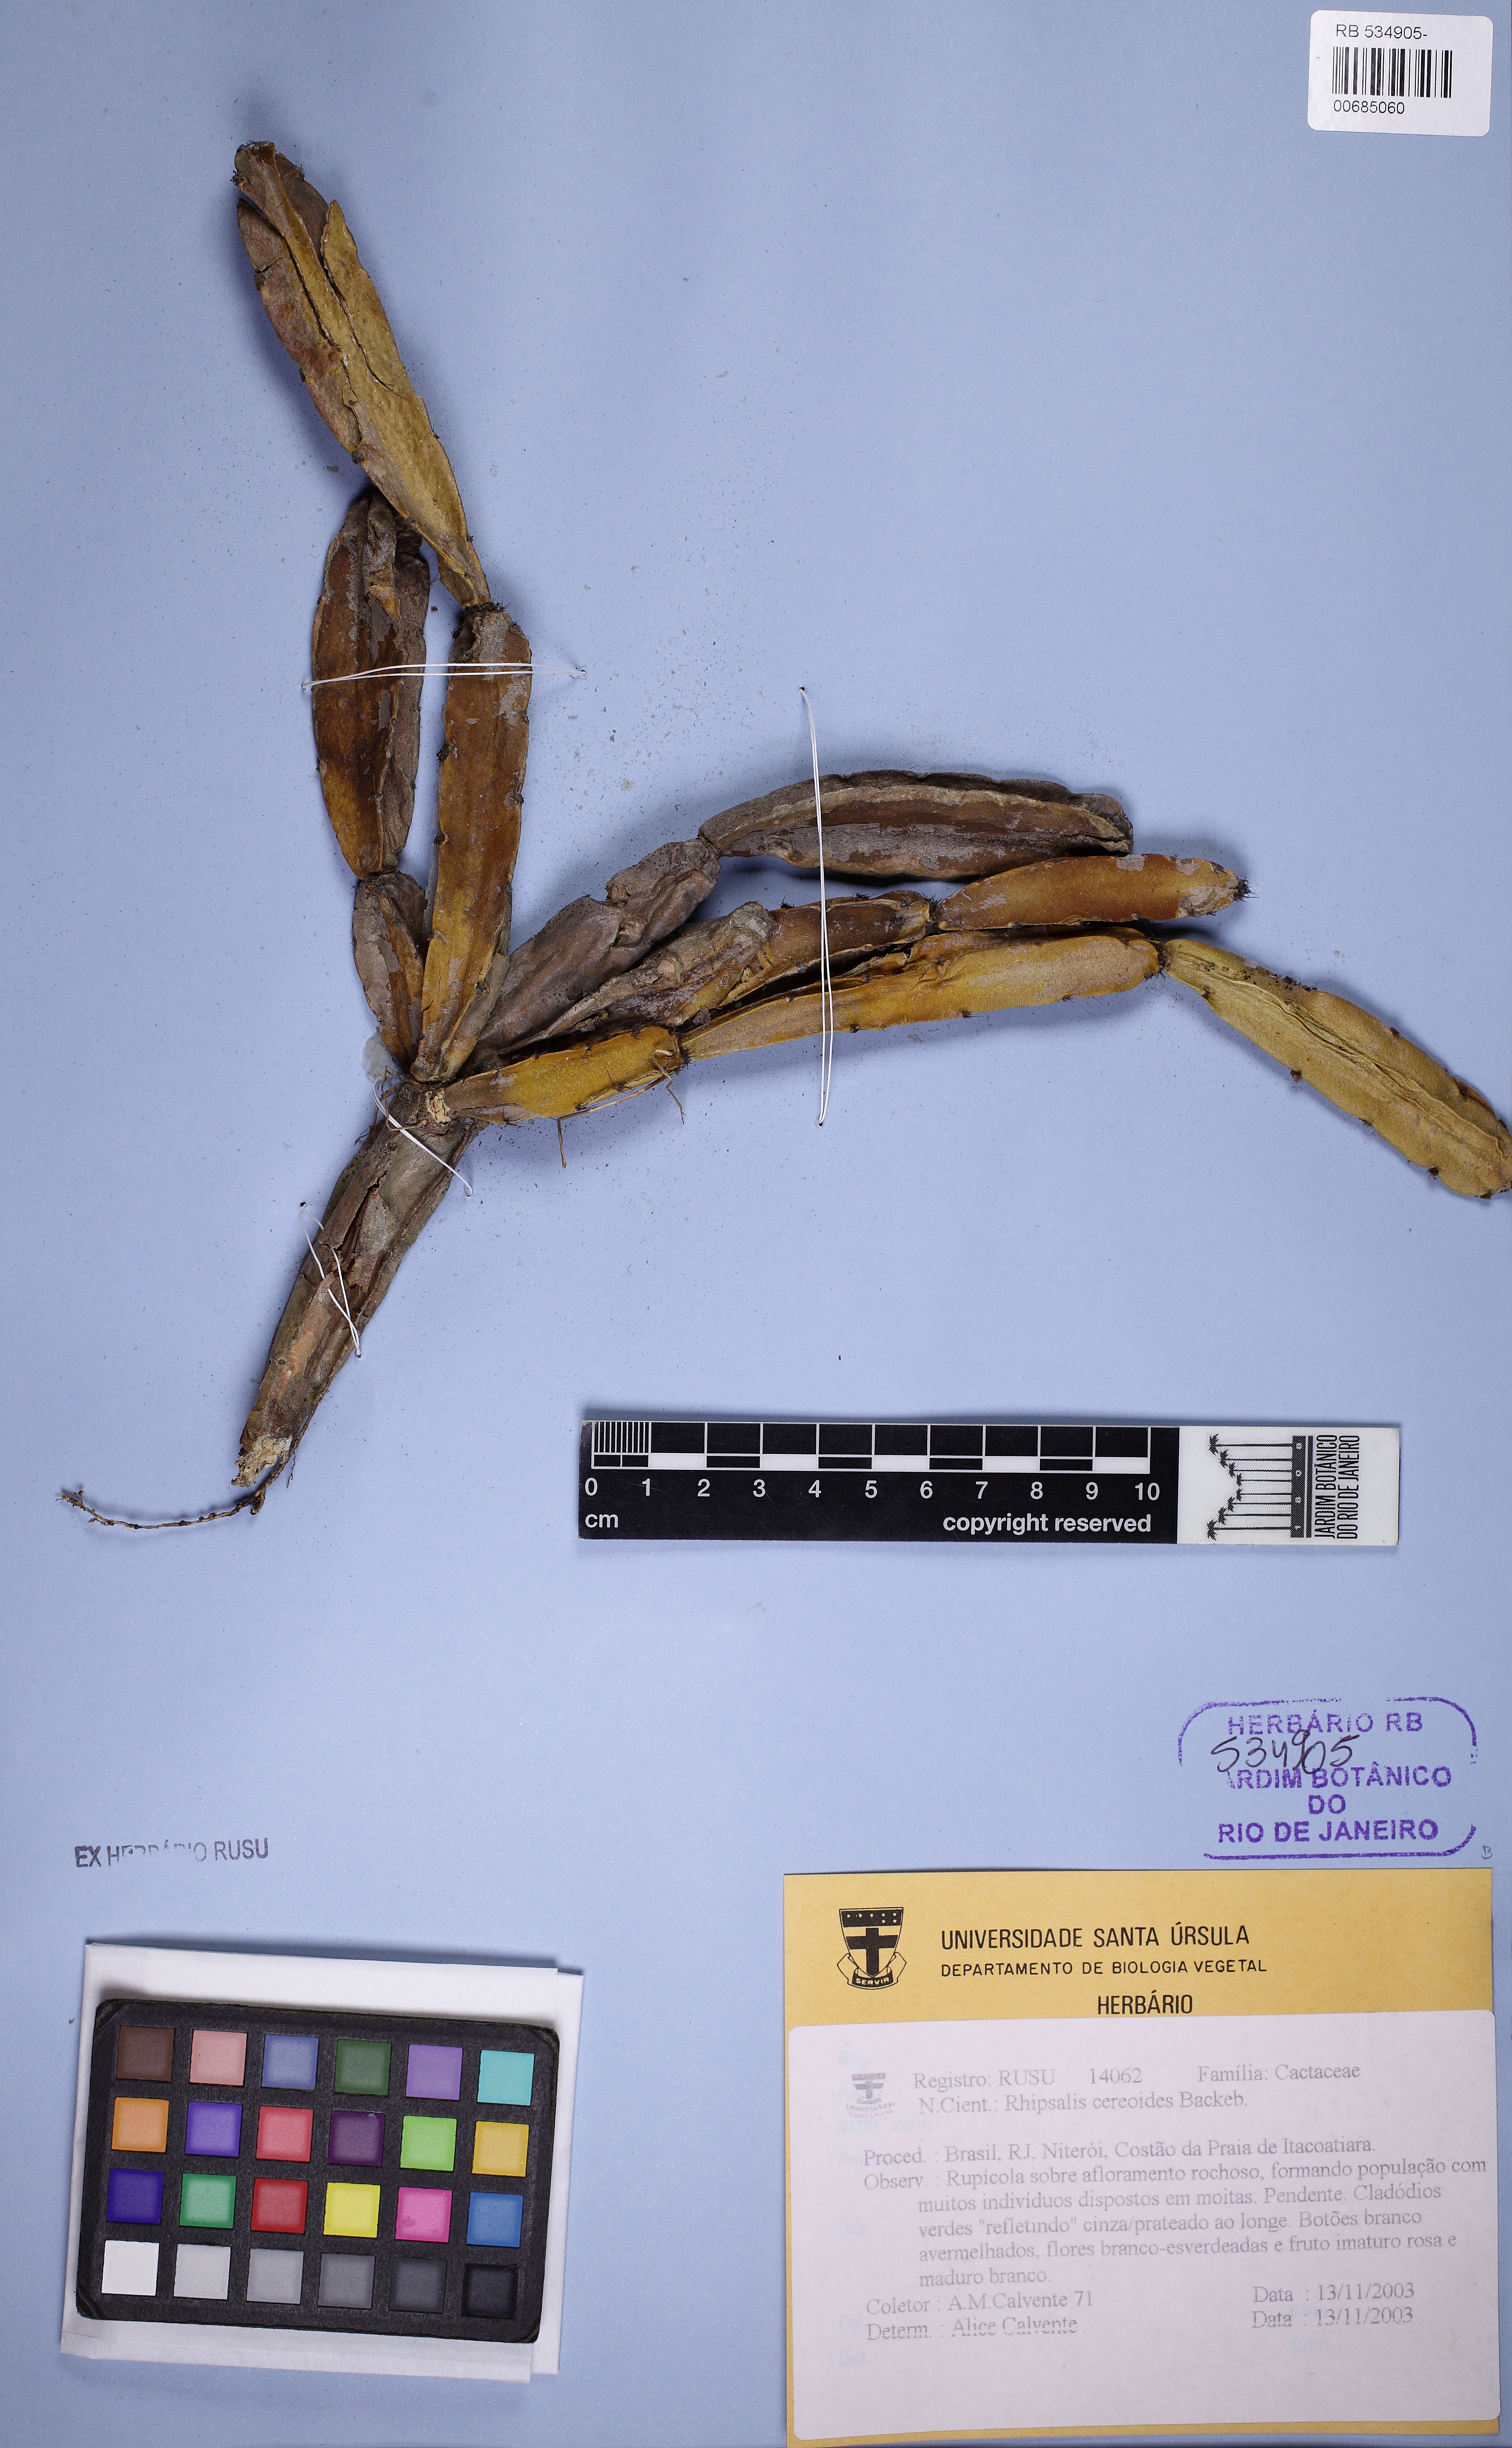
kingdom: Plantae
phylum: Tracheophyta
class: Magnoliopsida
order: Caryophyllales
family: Cactaceae
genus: Rhipsalis
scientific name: Rhipsalis cereoides
